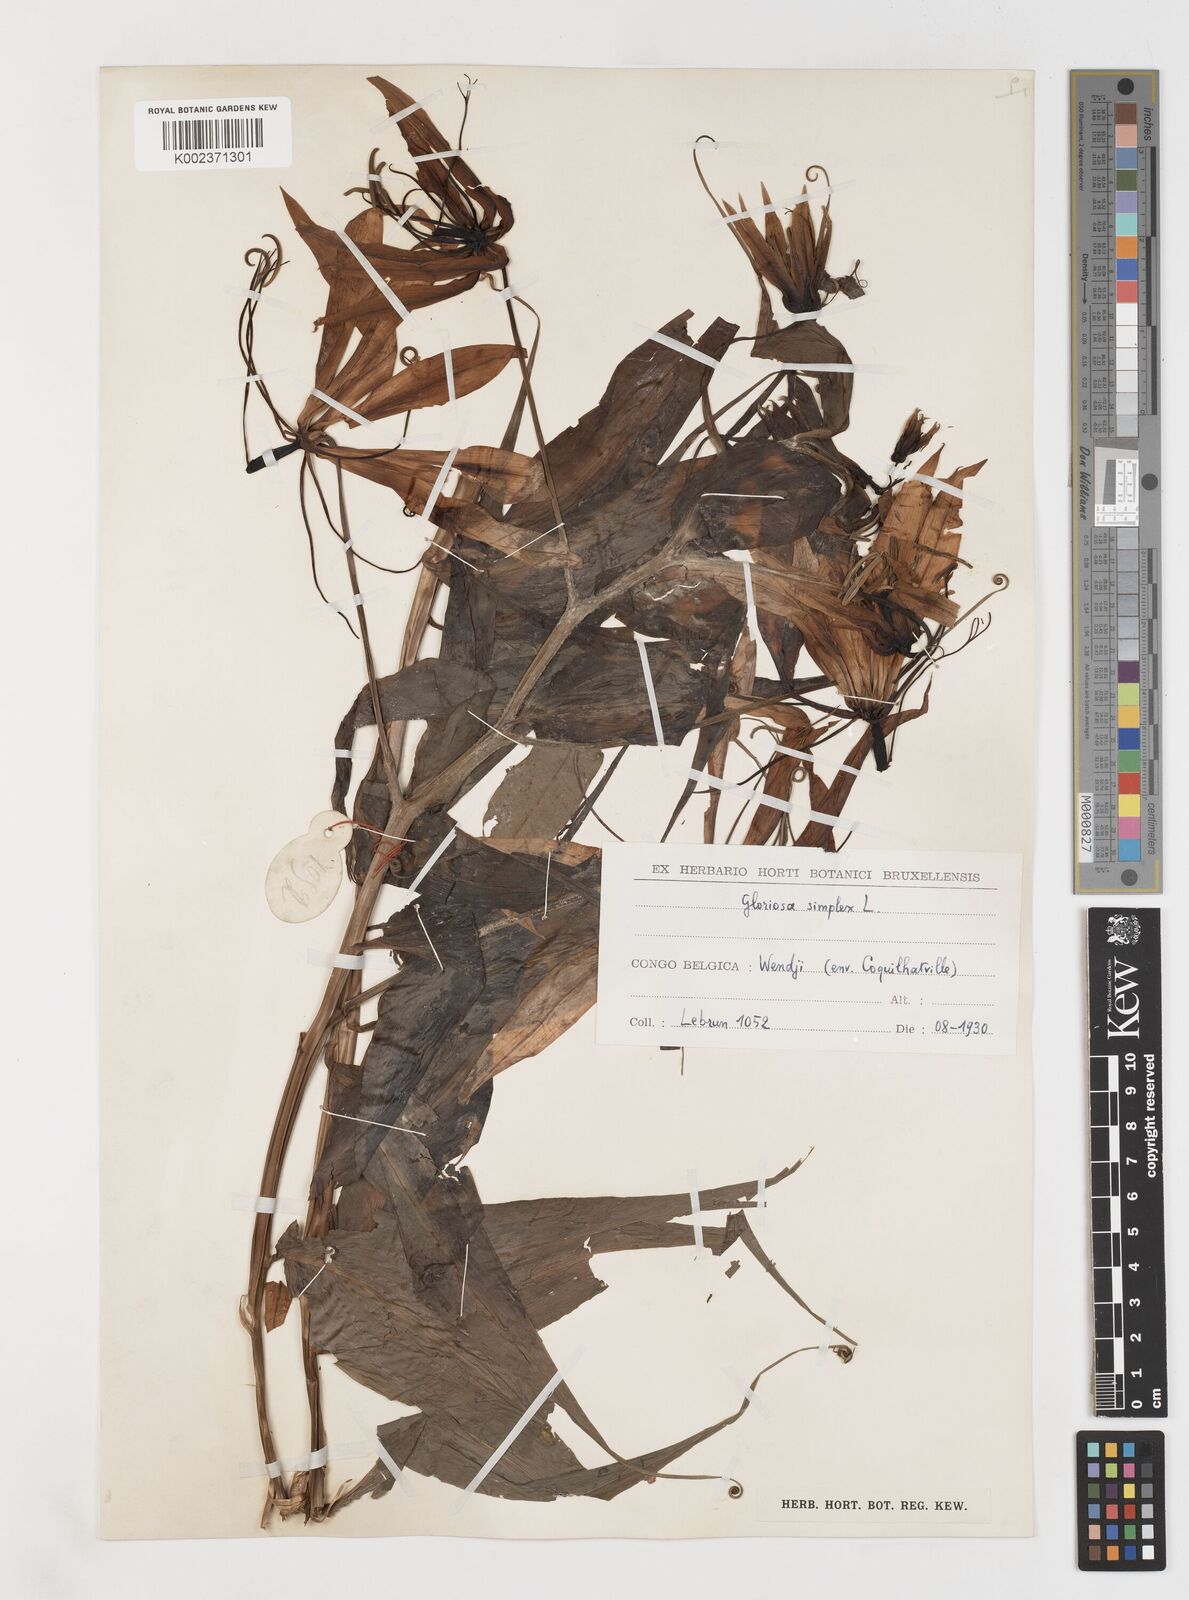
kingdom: Plantae
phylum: Tracheophyta
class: Liliopsida
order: Liliales
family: Colchicaceae
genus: Gloriosa
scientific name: Gloriosa simplex
